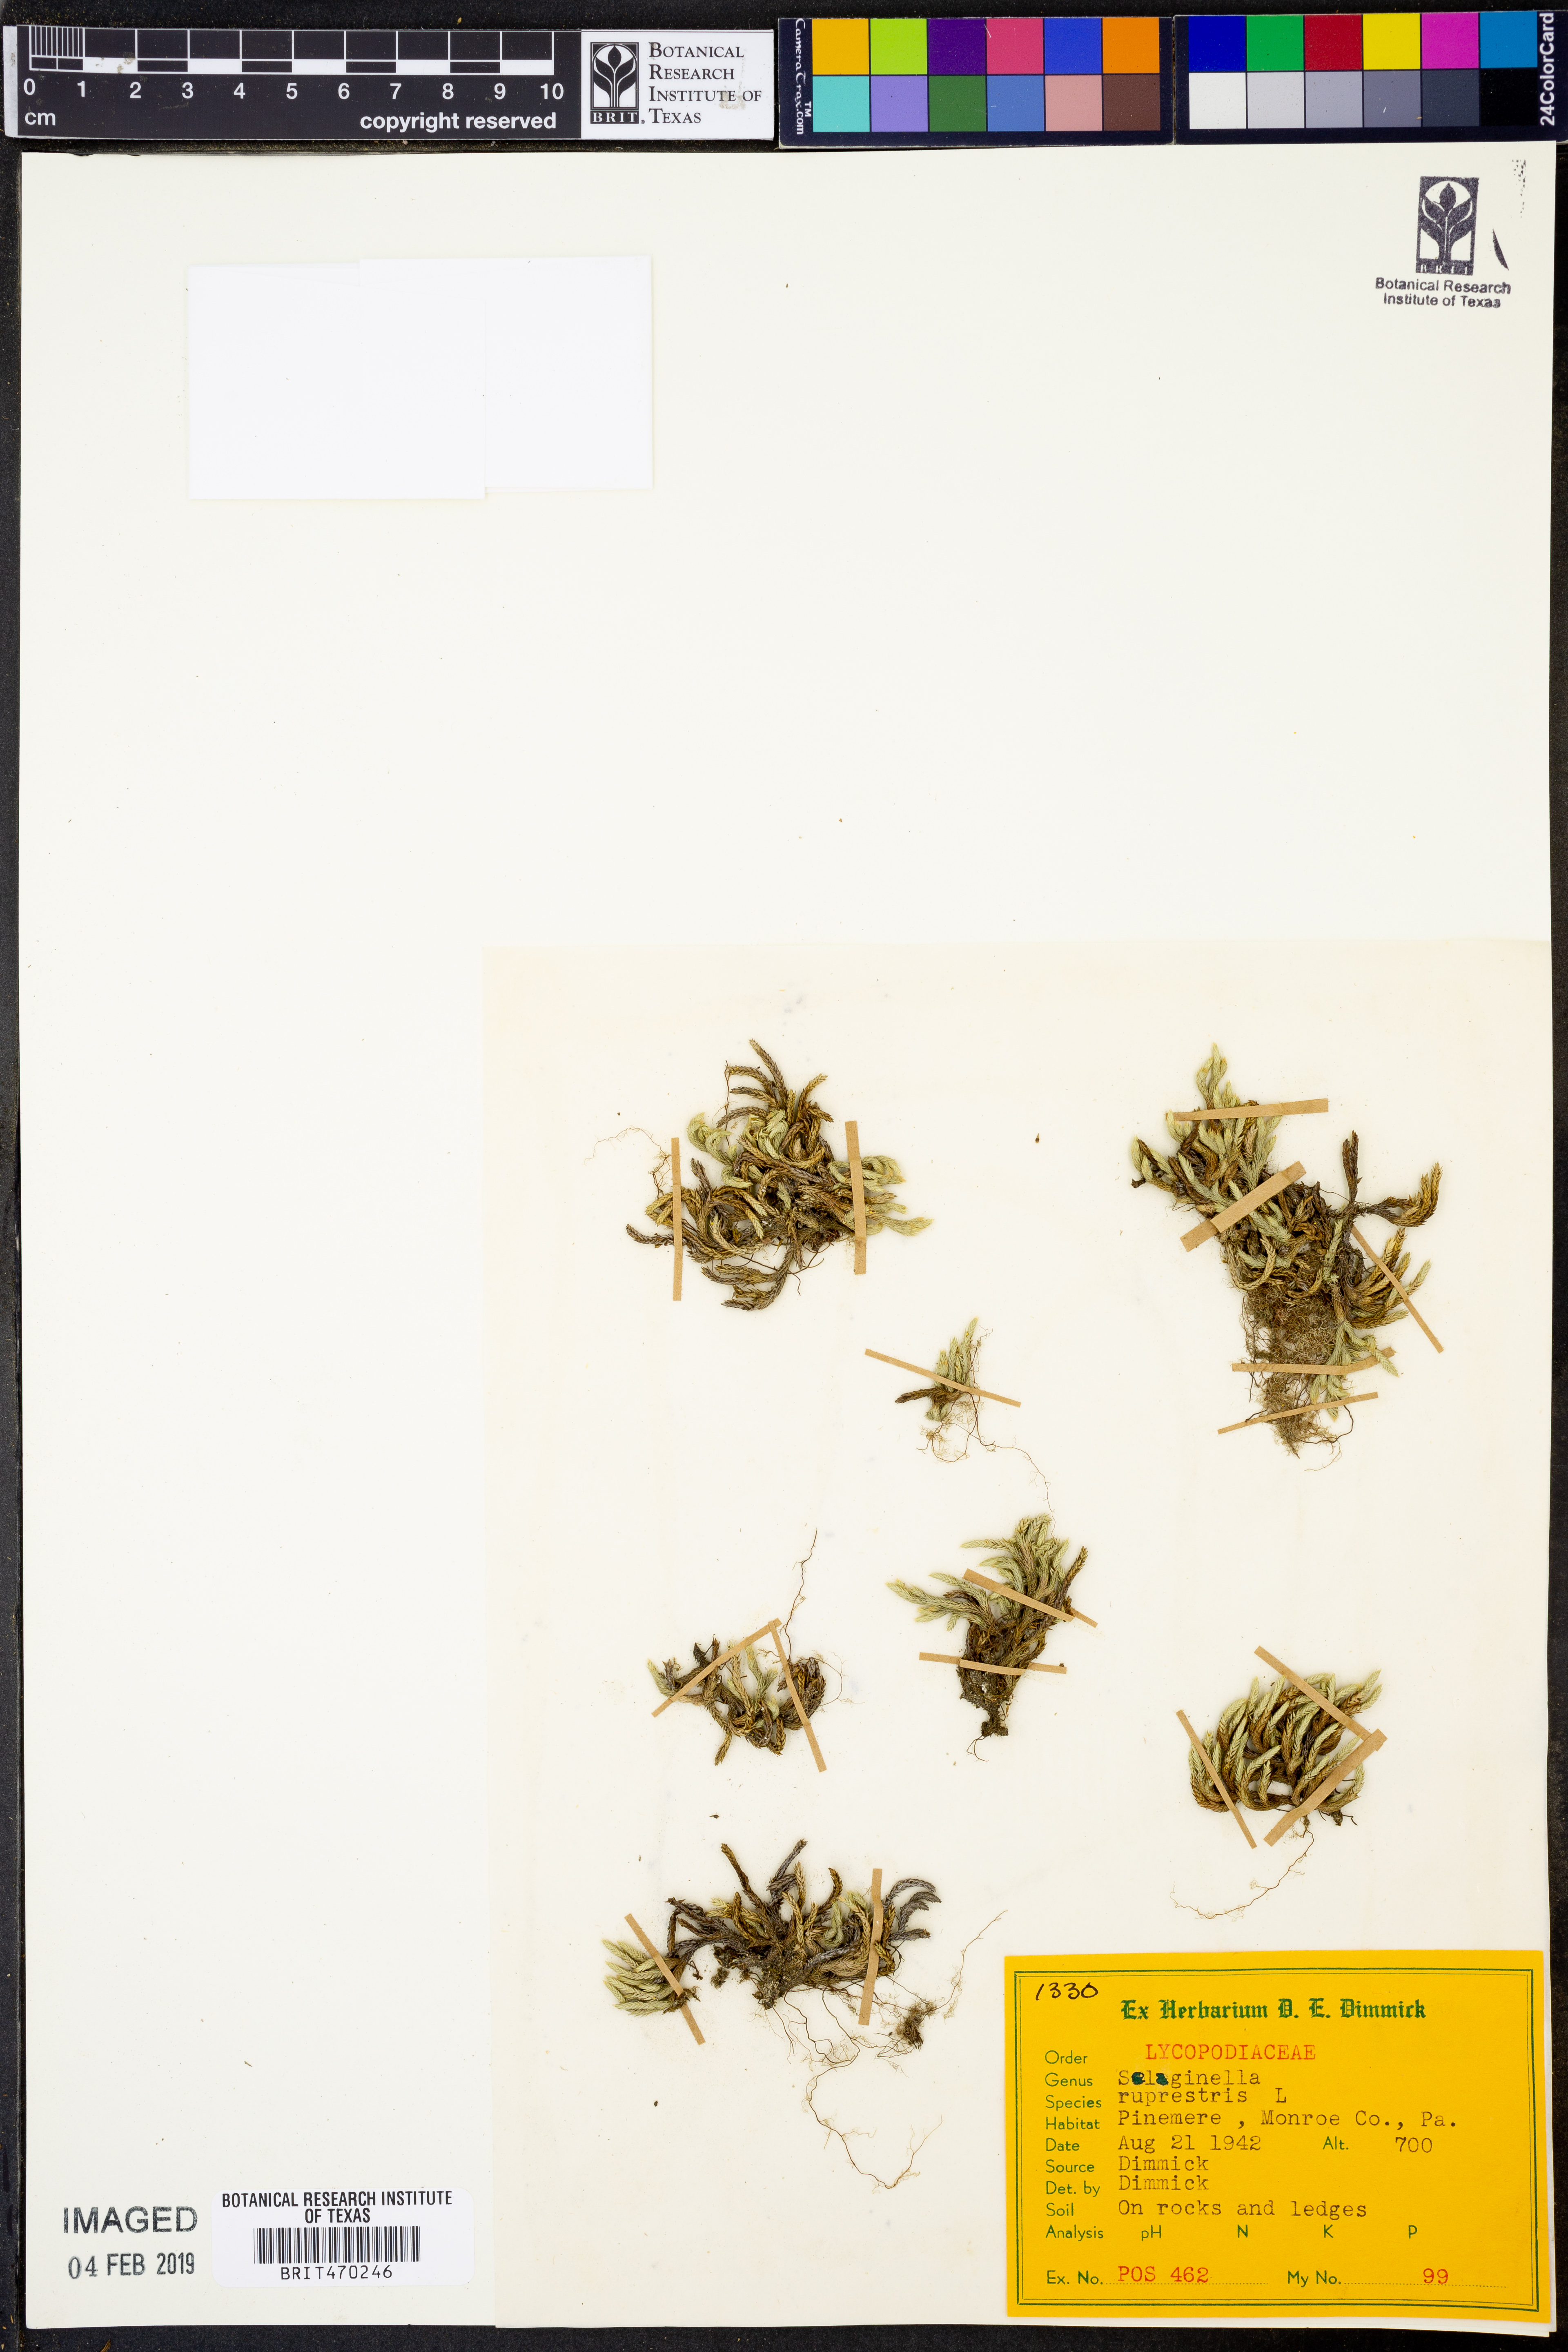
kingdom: Plantae
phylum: Tracheophyta
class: Lycopodiopsida
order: Selaginellales
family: Selaginellaceae
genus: Selaginella
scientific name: Selaginella rupestris
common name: Dwarf spikemoss
